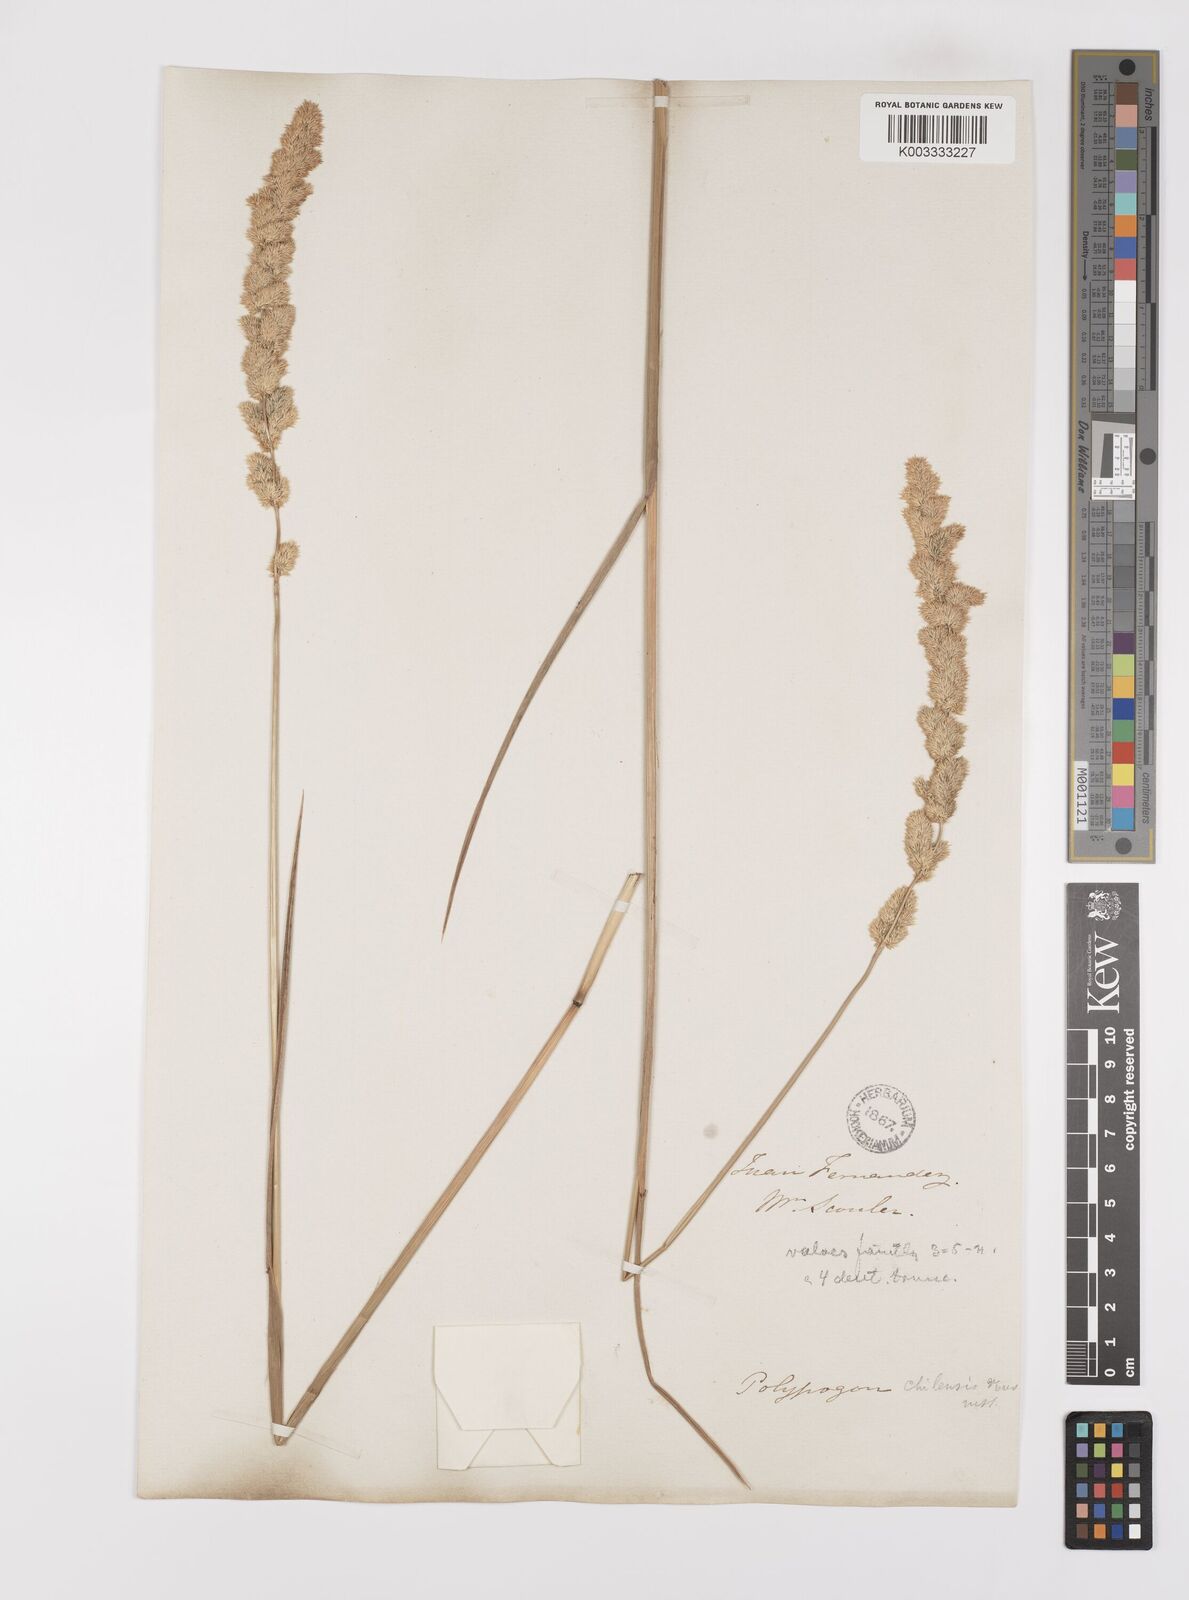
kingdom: Plantae
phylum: Tracheophyta
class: Liliopsida
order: Poales
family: Poaceae
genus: Polypogon
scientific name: Polypogon chilensis
